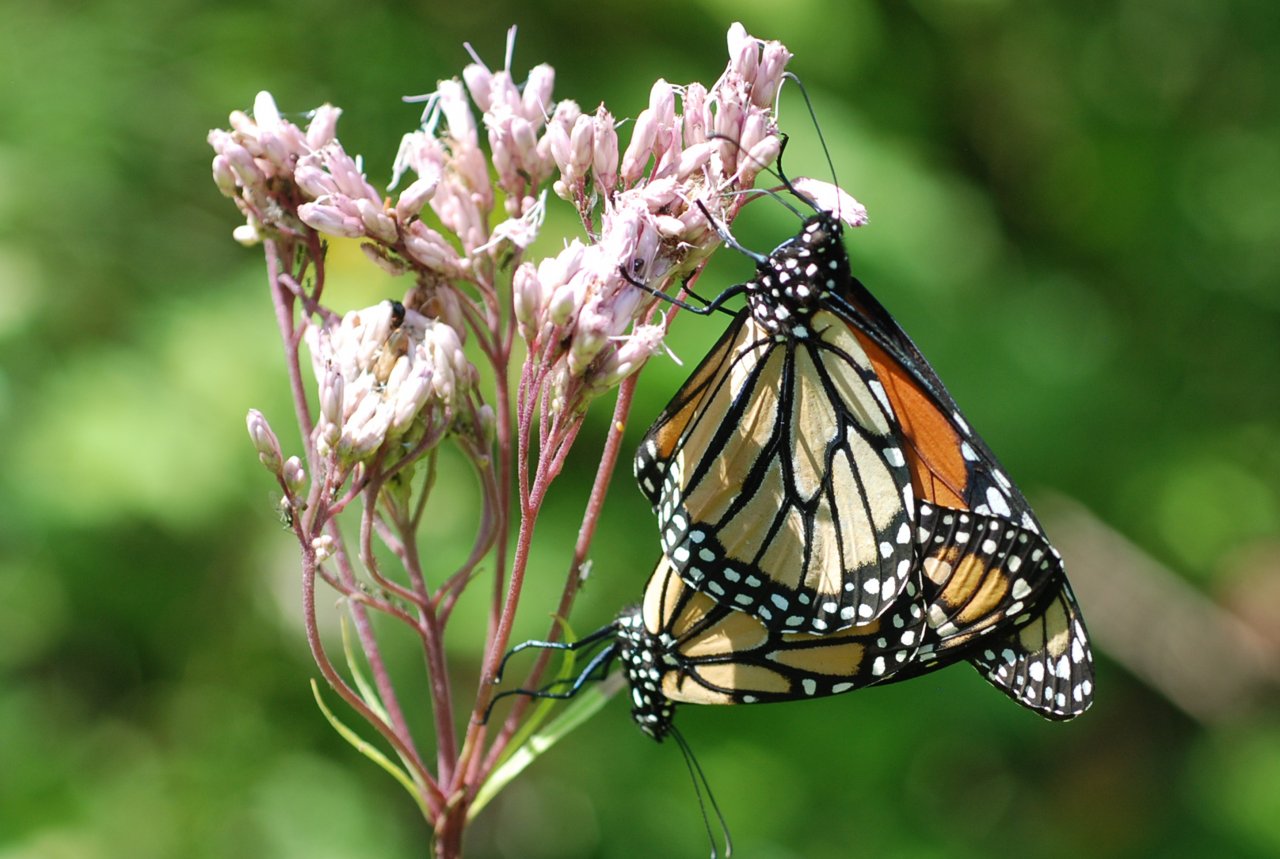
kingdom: Animalia
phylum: Arthropoda
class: Insecta
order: Lepidoptera
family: Nymphalidae
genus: Danaus
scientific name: Danaus plexippus
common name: Monarch
